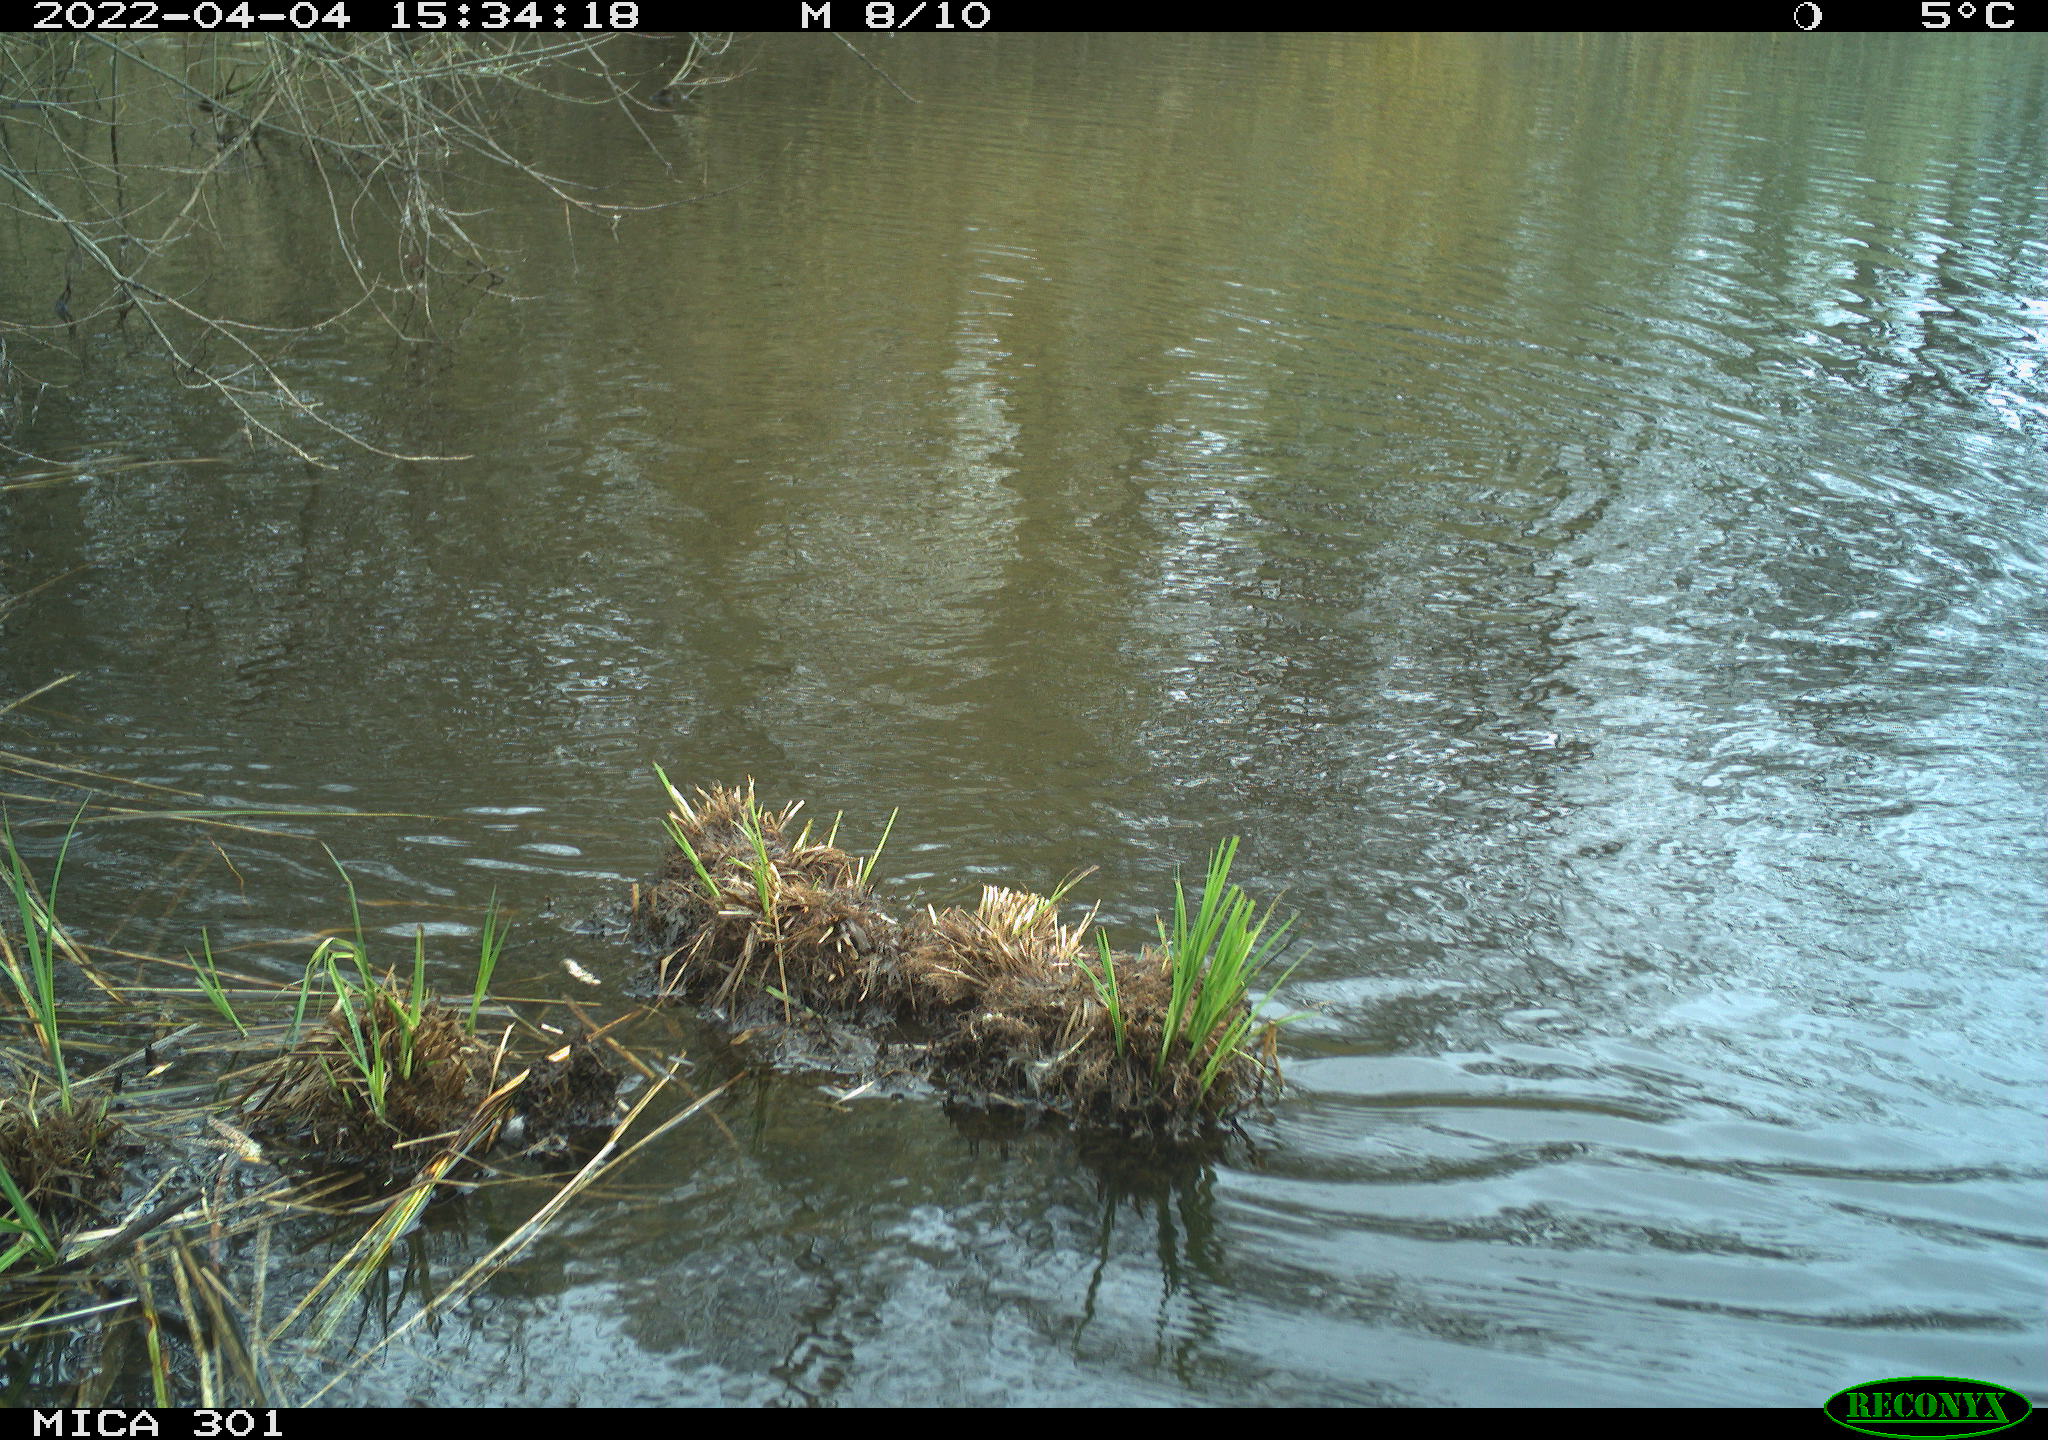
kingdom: Animalia
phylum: Chordata
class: Aves
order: Anseriformes
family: Anatidae
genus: Anas
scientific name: Anas platyrhynchos
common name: Mallard
